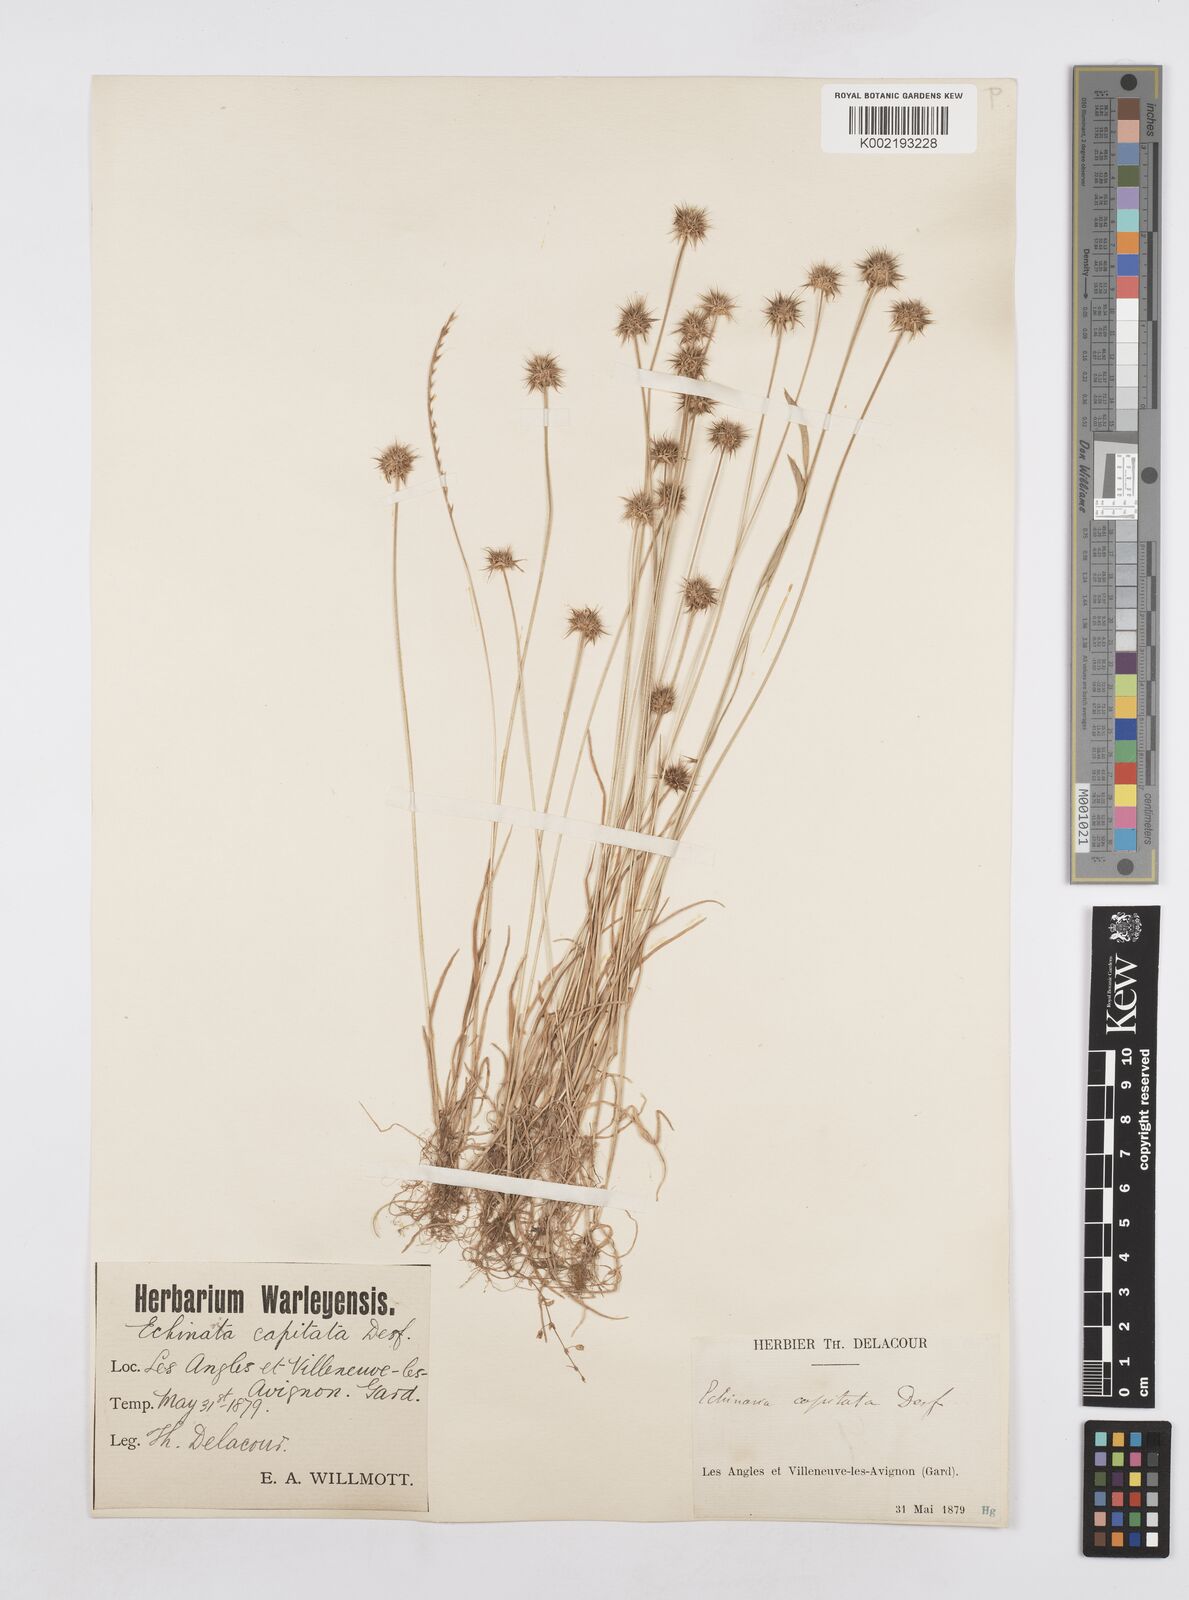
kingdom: Plantae
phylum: Tracheophyta
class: Liliopsida
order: Poales
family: Poaceae
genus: Echinaria
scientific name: Echinaria capitata
